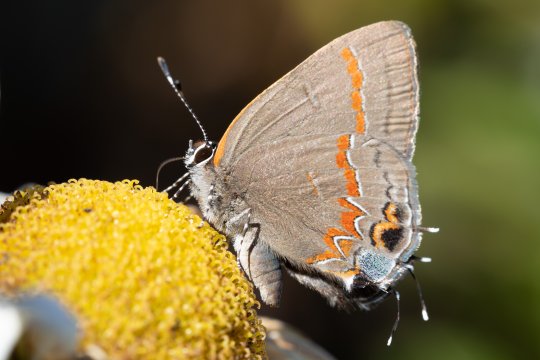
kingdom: Animalia
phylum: Arthropoda
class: Insecta
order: Lepidoptera
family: Lycaenidae
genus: Calycopis
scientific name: Calycopis cecrops
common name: Red-banded Hairstreak
